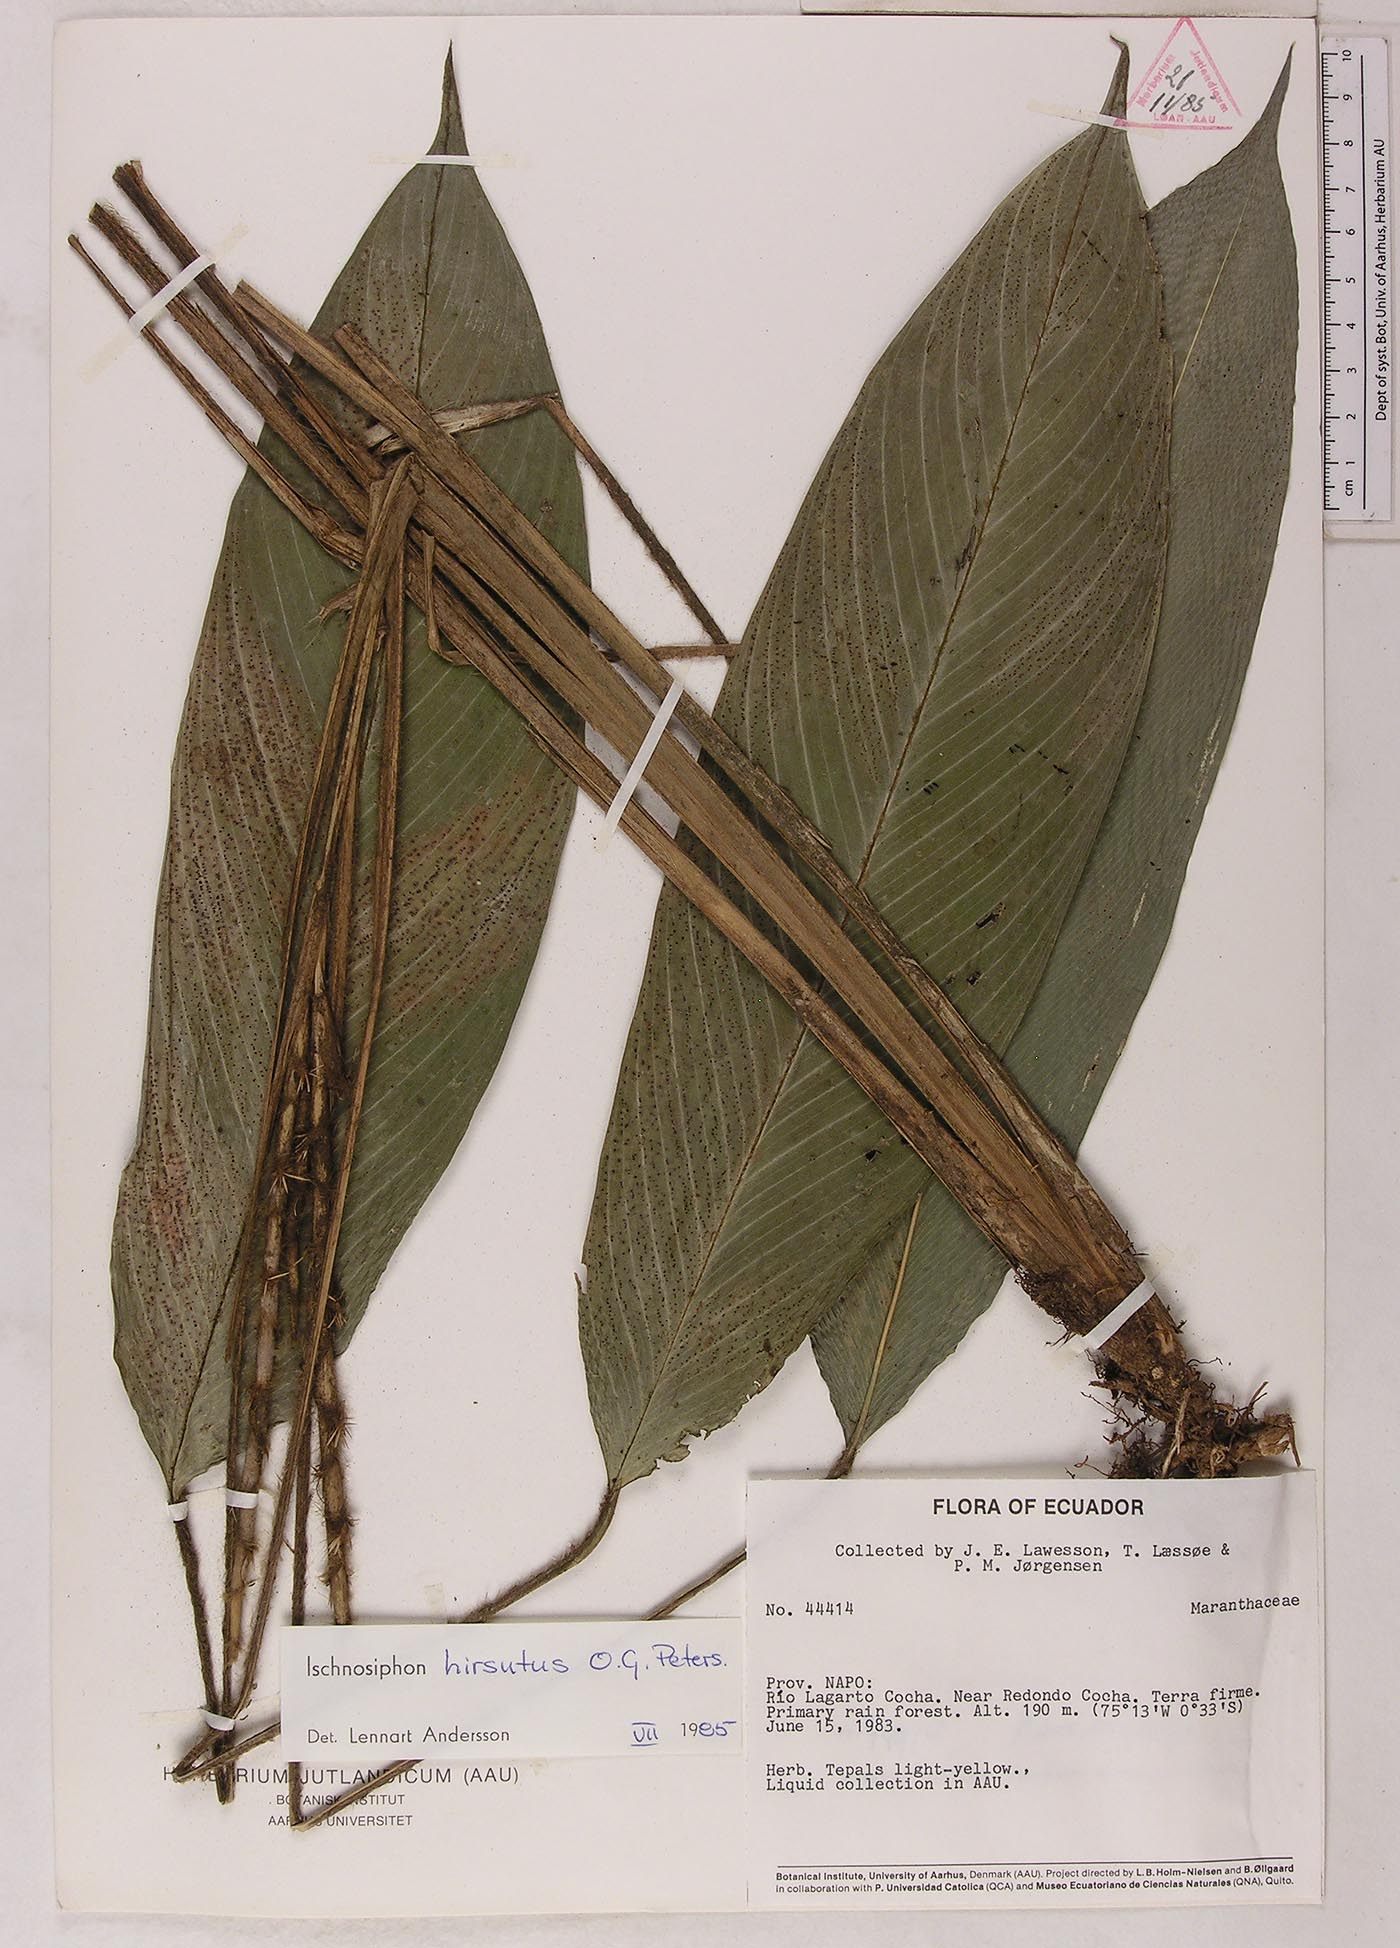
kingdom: Plantae
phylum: Tracheophyta
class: Liliopsida
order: Zingiberales
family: Marantaceae
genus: Ischnosiphon
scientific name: Ischnosiphon hirsutus
